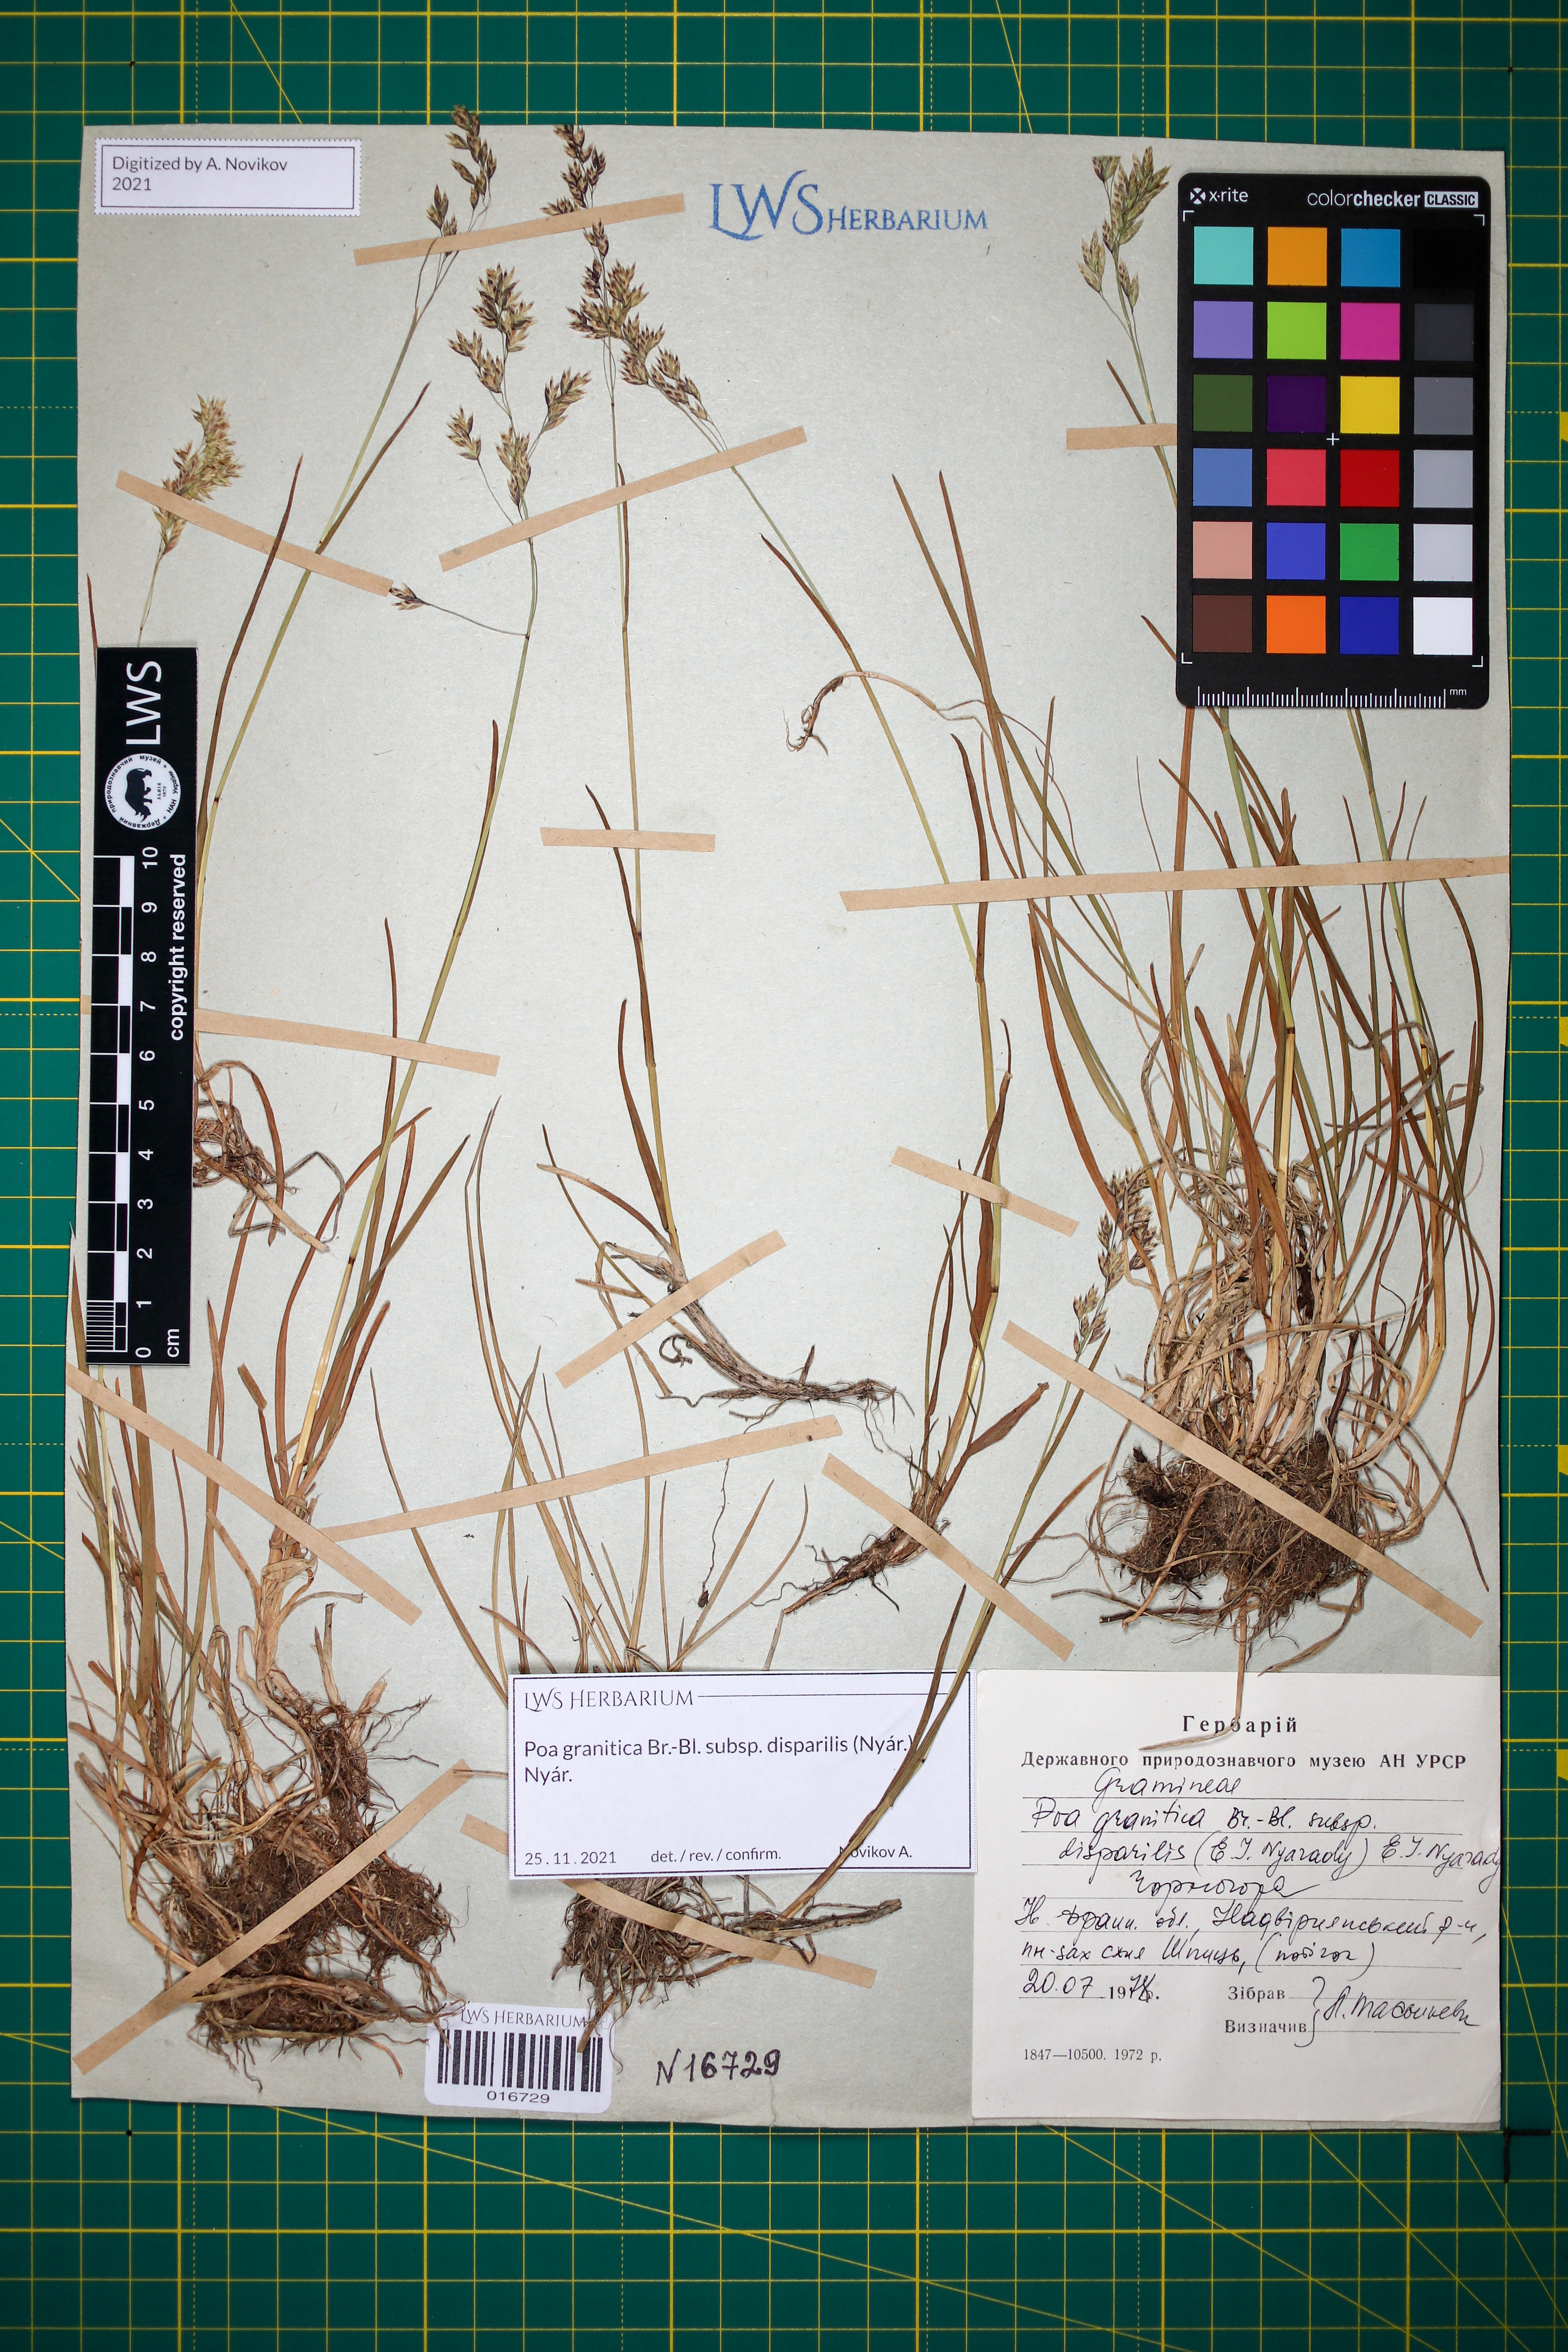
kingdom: Plantae
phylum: Tracheophyta
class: Liliopsida
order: Poales
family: Poaceae
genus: Poa
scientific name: Poa granitica
